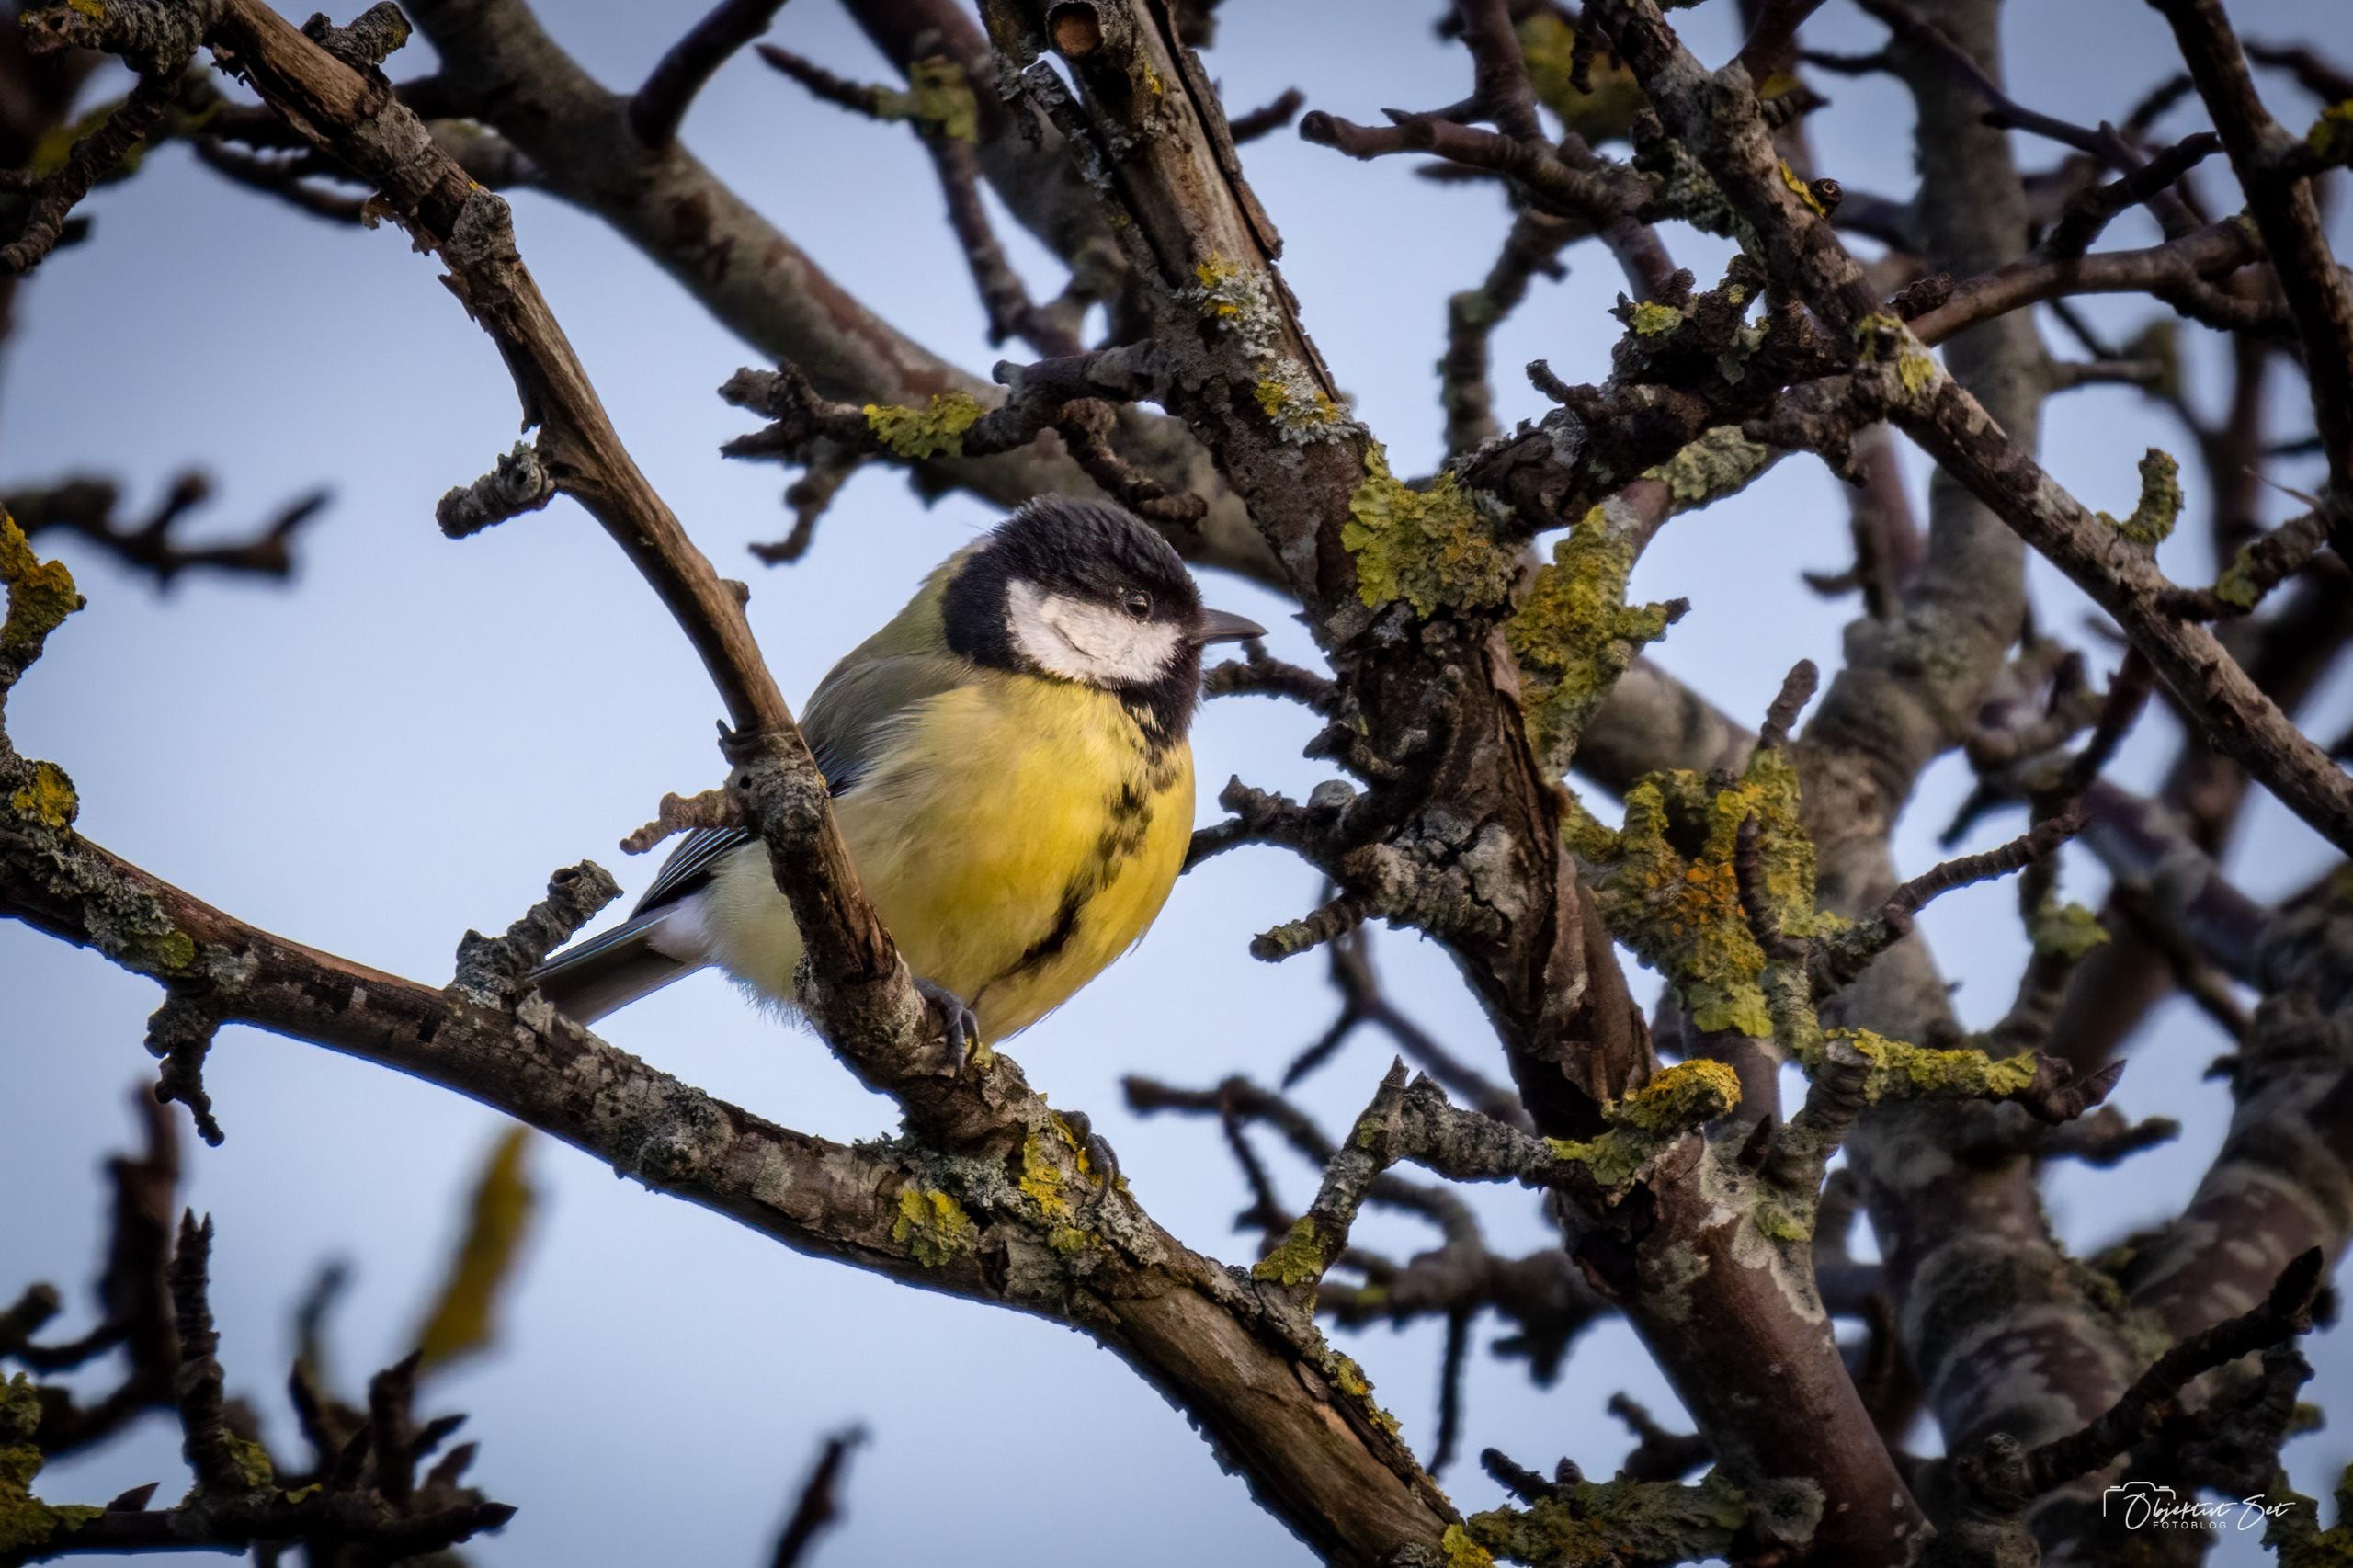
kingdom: Animalia
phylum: Chordata
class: Aves
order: Passeriformes
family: Paridae
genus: Parus
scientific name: Parus major
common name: Musvit
